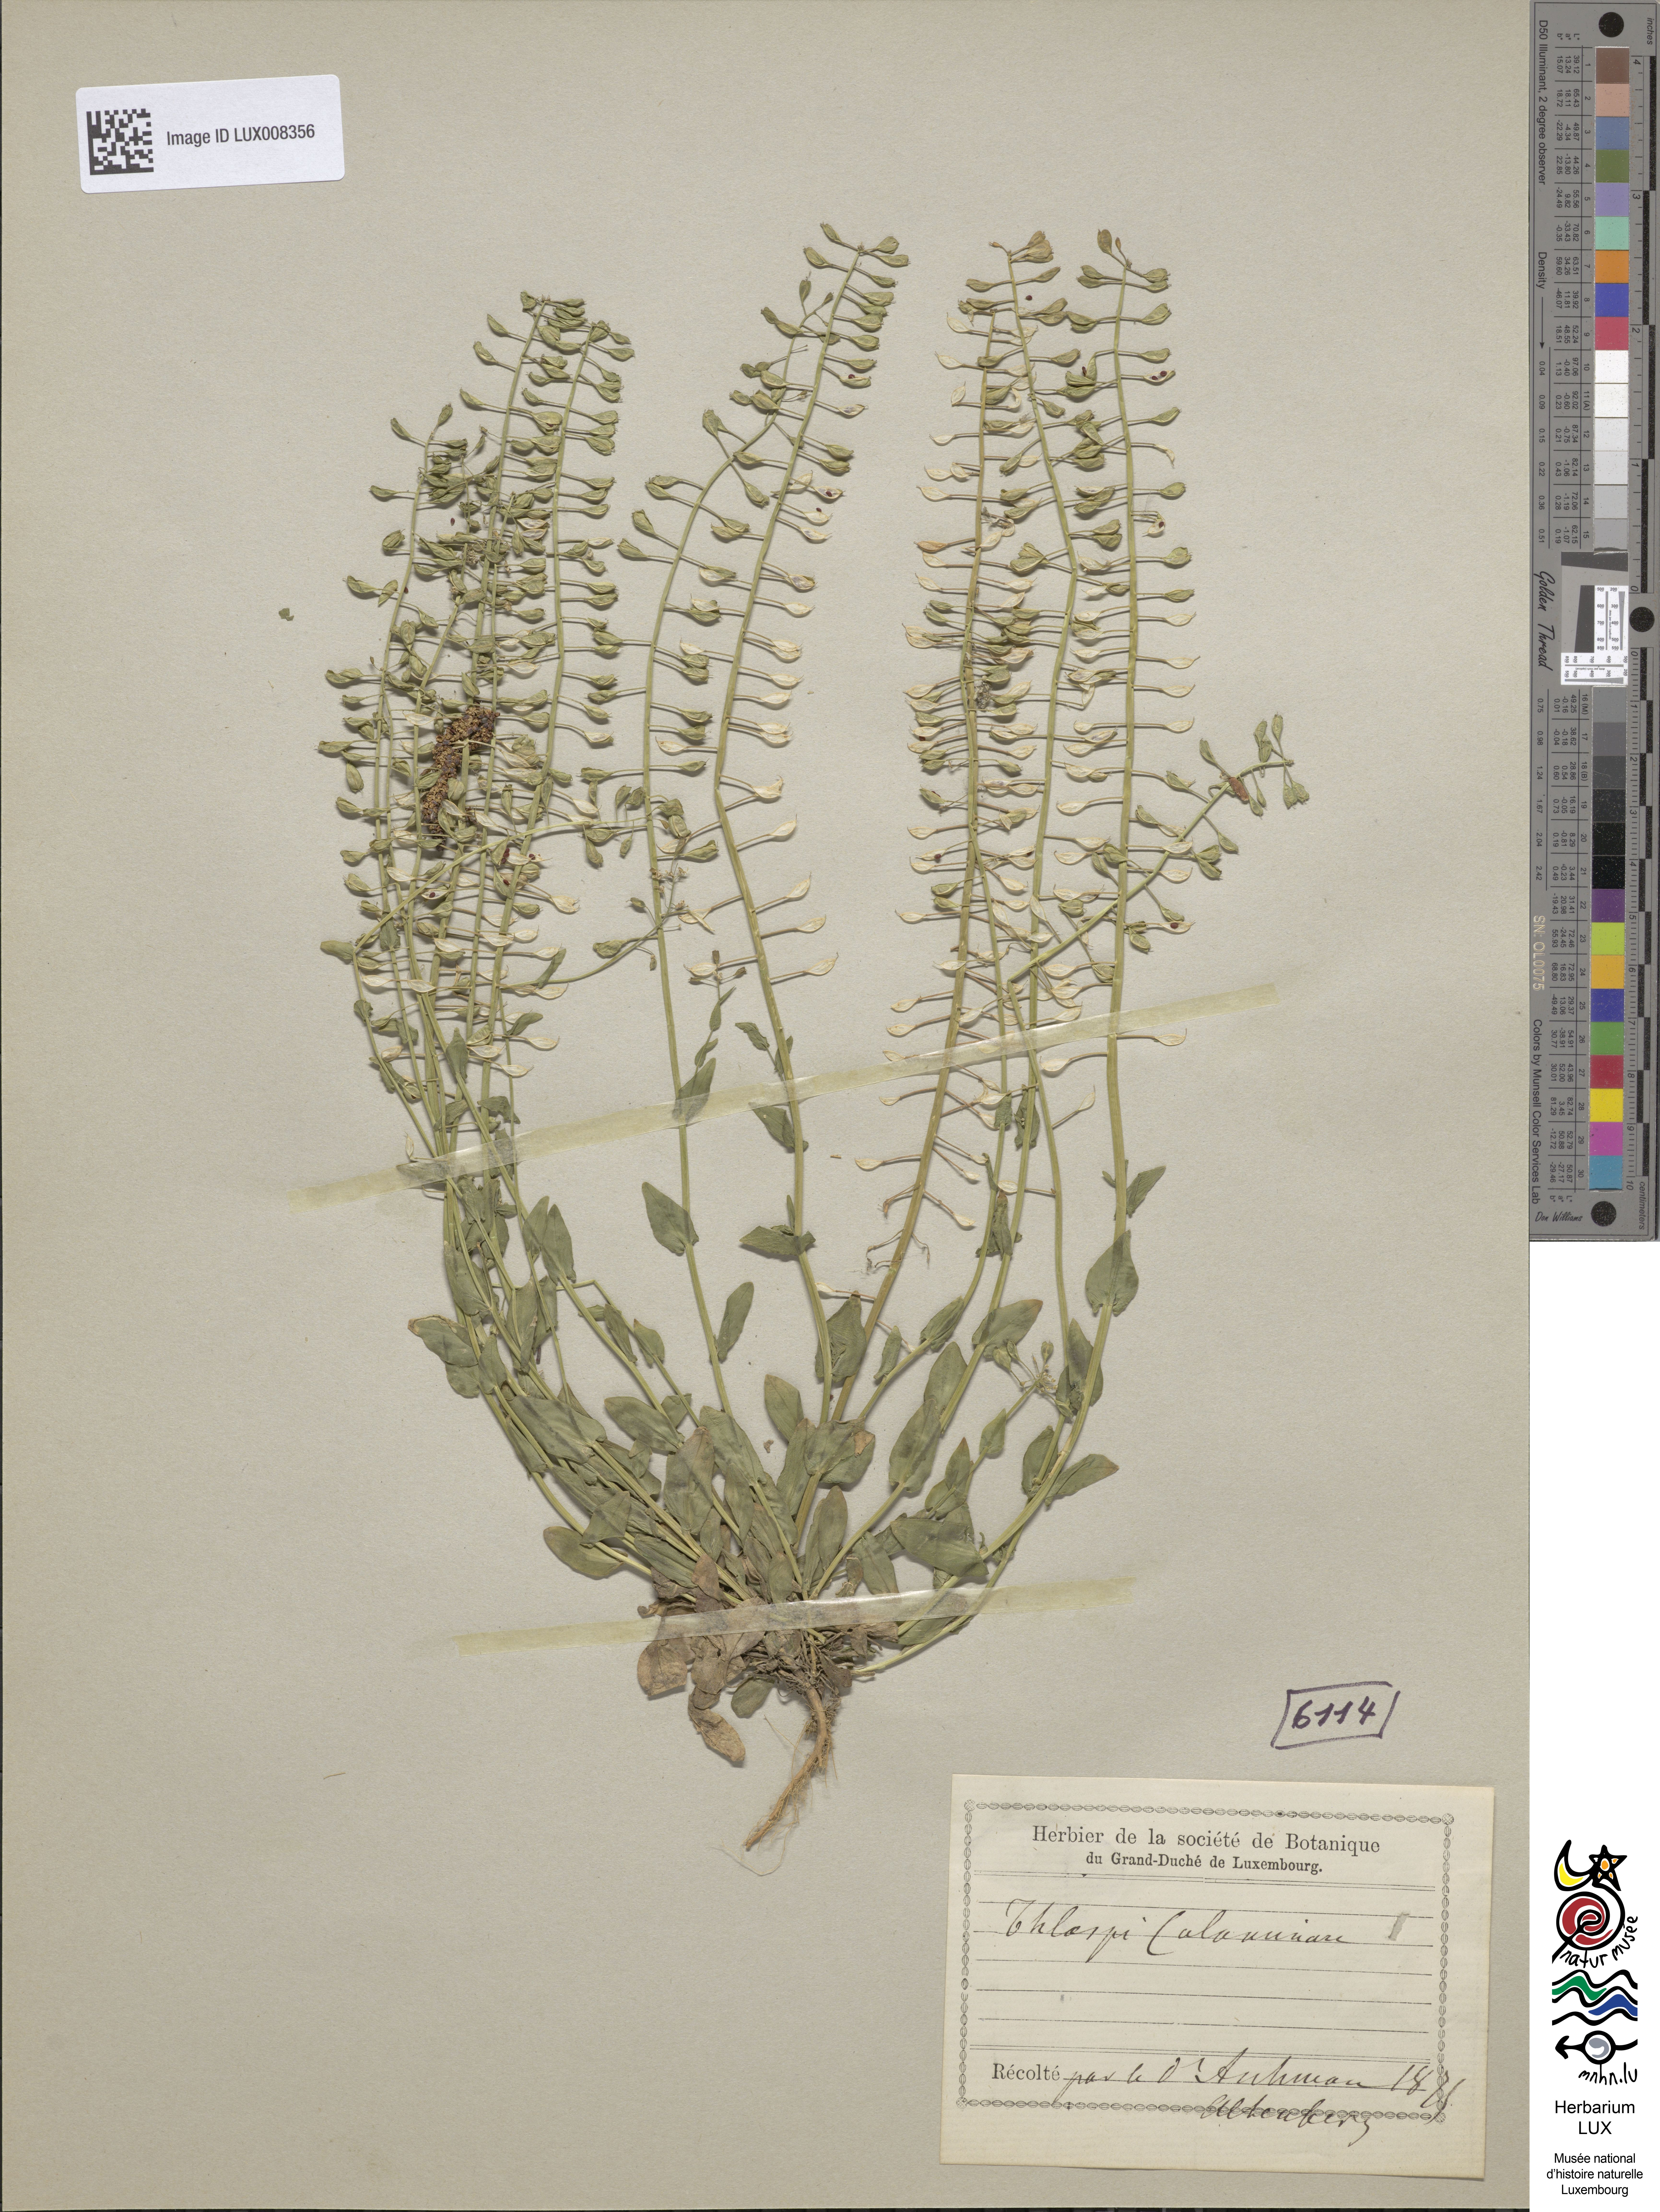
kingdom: Plantae
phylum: Tracheophyta
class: Magnoliopsida
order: Brassicales
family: Brassicaceae
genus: Noccaea
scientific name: Noccaea caerulescens
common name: Alpine pennycress
